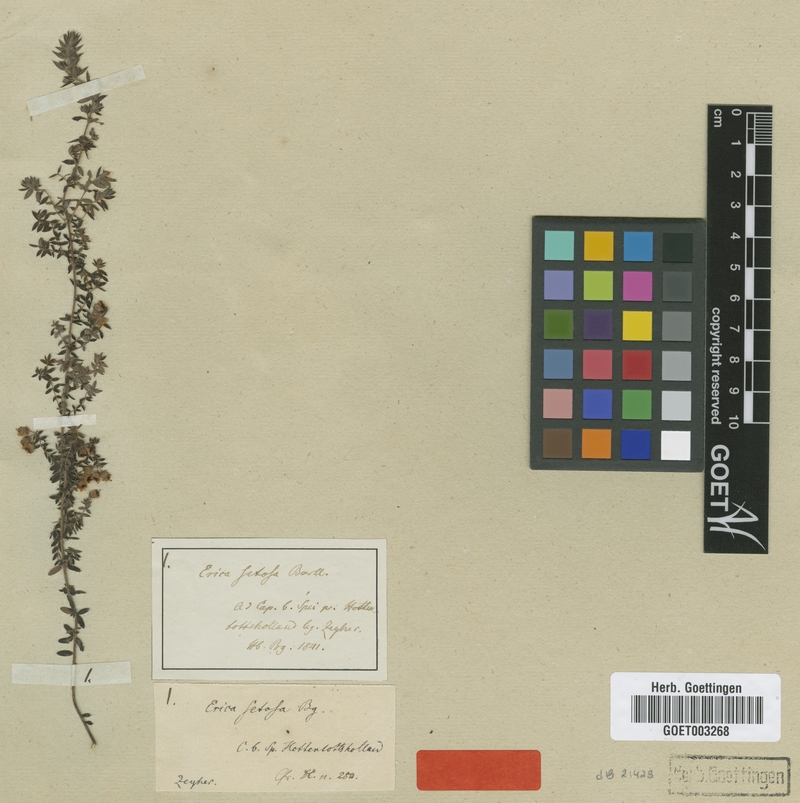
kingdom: Plantae
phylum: Tracheophyta
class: Magnoliopsida
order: Ericales
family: Ericaceae
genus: Erica
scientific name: Erica setosa
